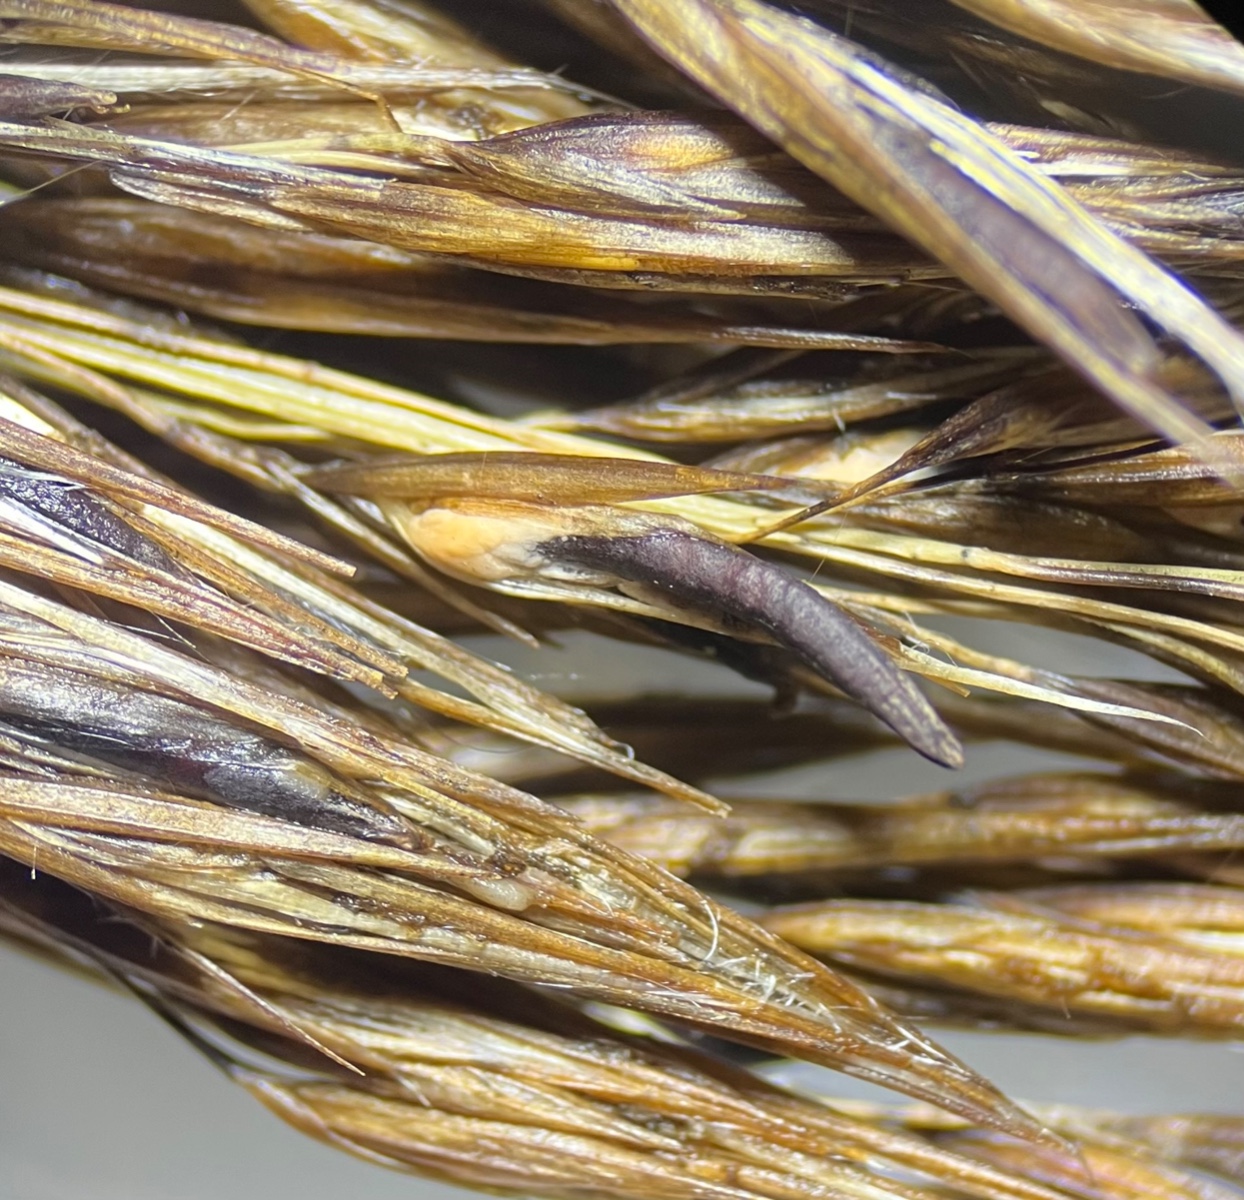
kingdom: Fungi
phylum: Ascomycota
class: Sordariomycetes
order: Hypocreales
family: Clavicipitaceae
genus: Claviceps
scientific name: Claviceps arundinis
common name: tagrør-meldrøjer
